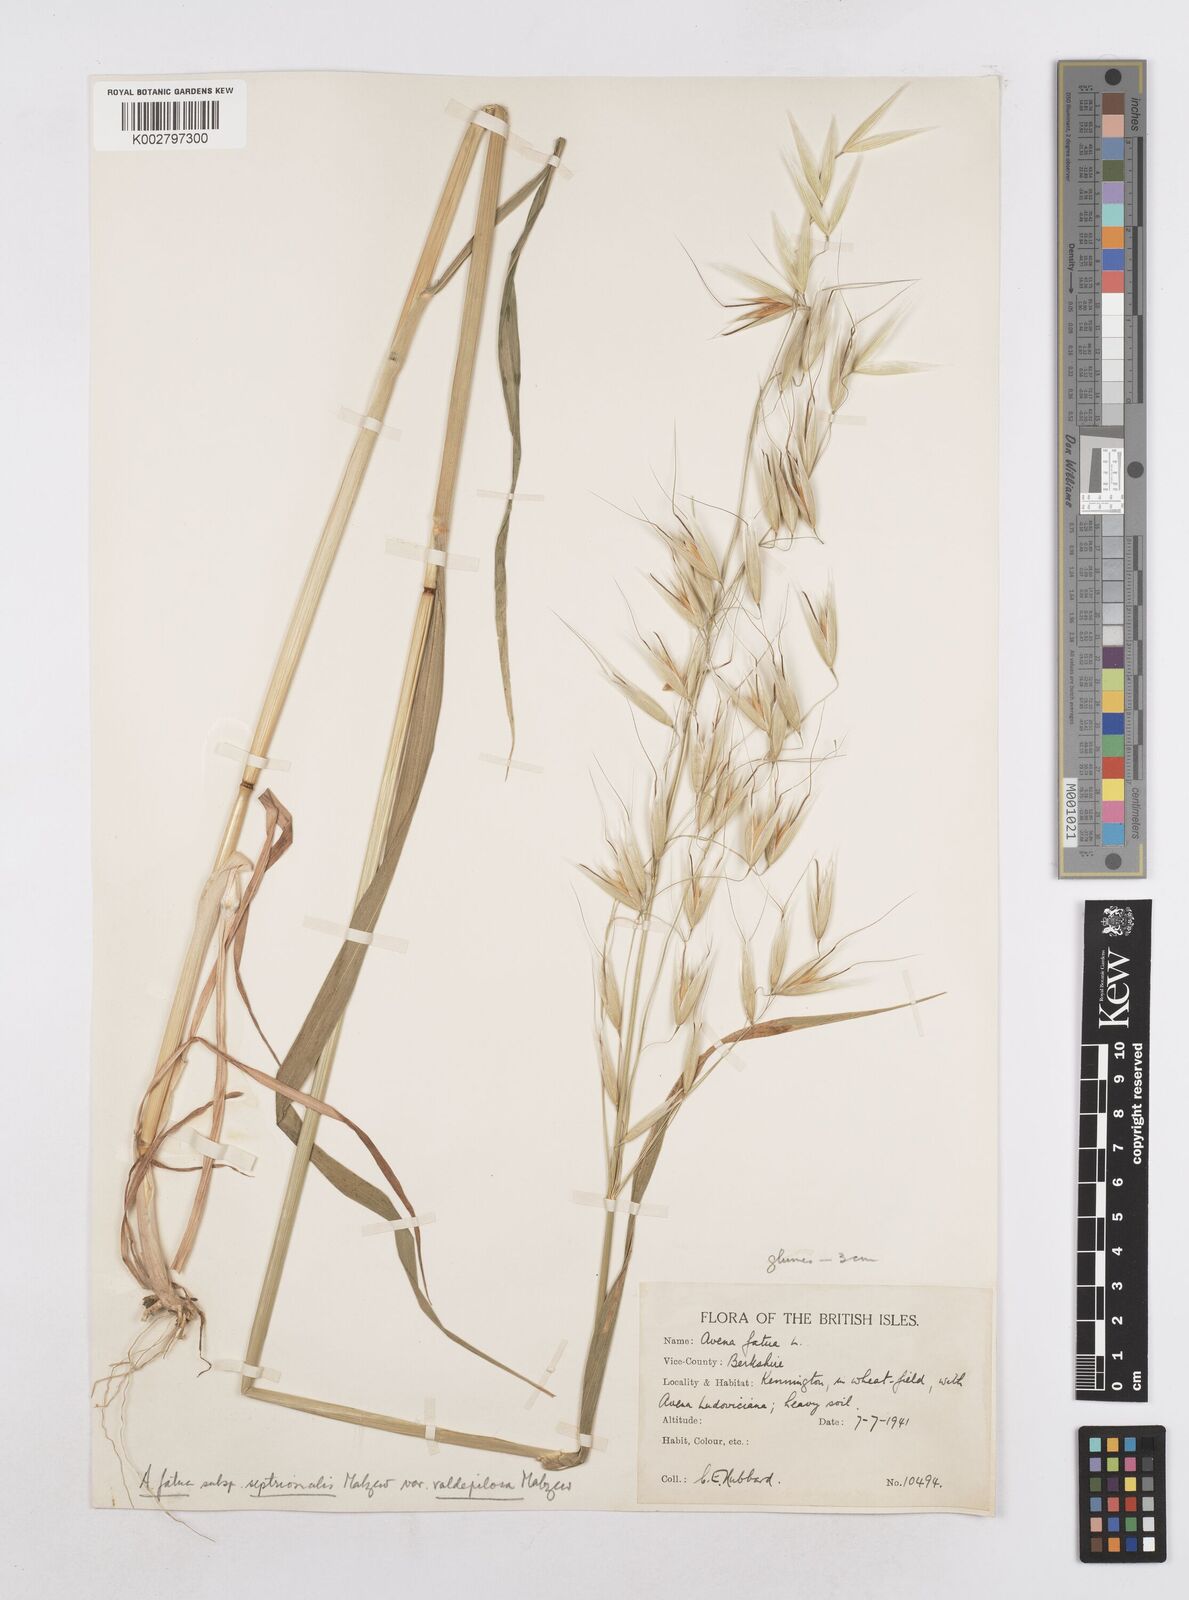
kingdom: Plantae
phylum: Tracheophyta
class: Liliopsida
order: Poales
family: Poaceae
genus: Avena
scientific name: Avena fatua
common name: Wild oat
